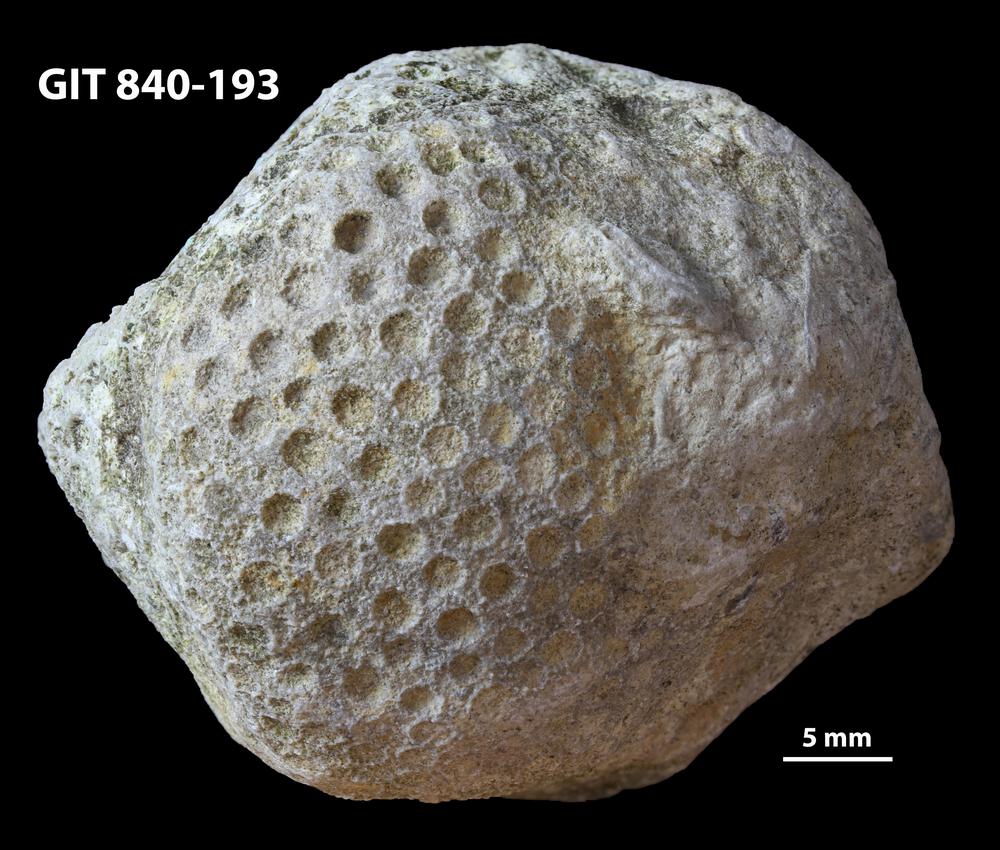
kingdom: Animalia
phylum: Xenacoelomorpha
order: Acoela
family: Proporidae
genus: Propora
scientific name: Propora
